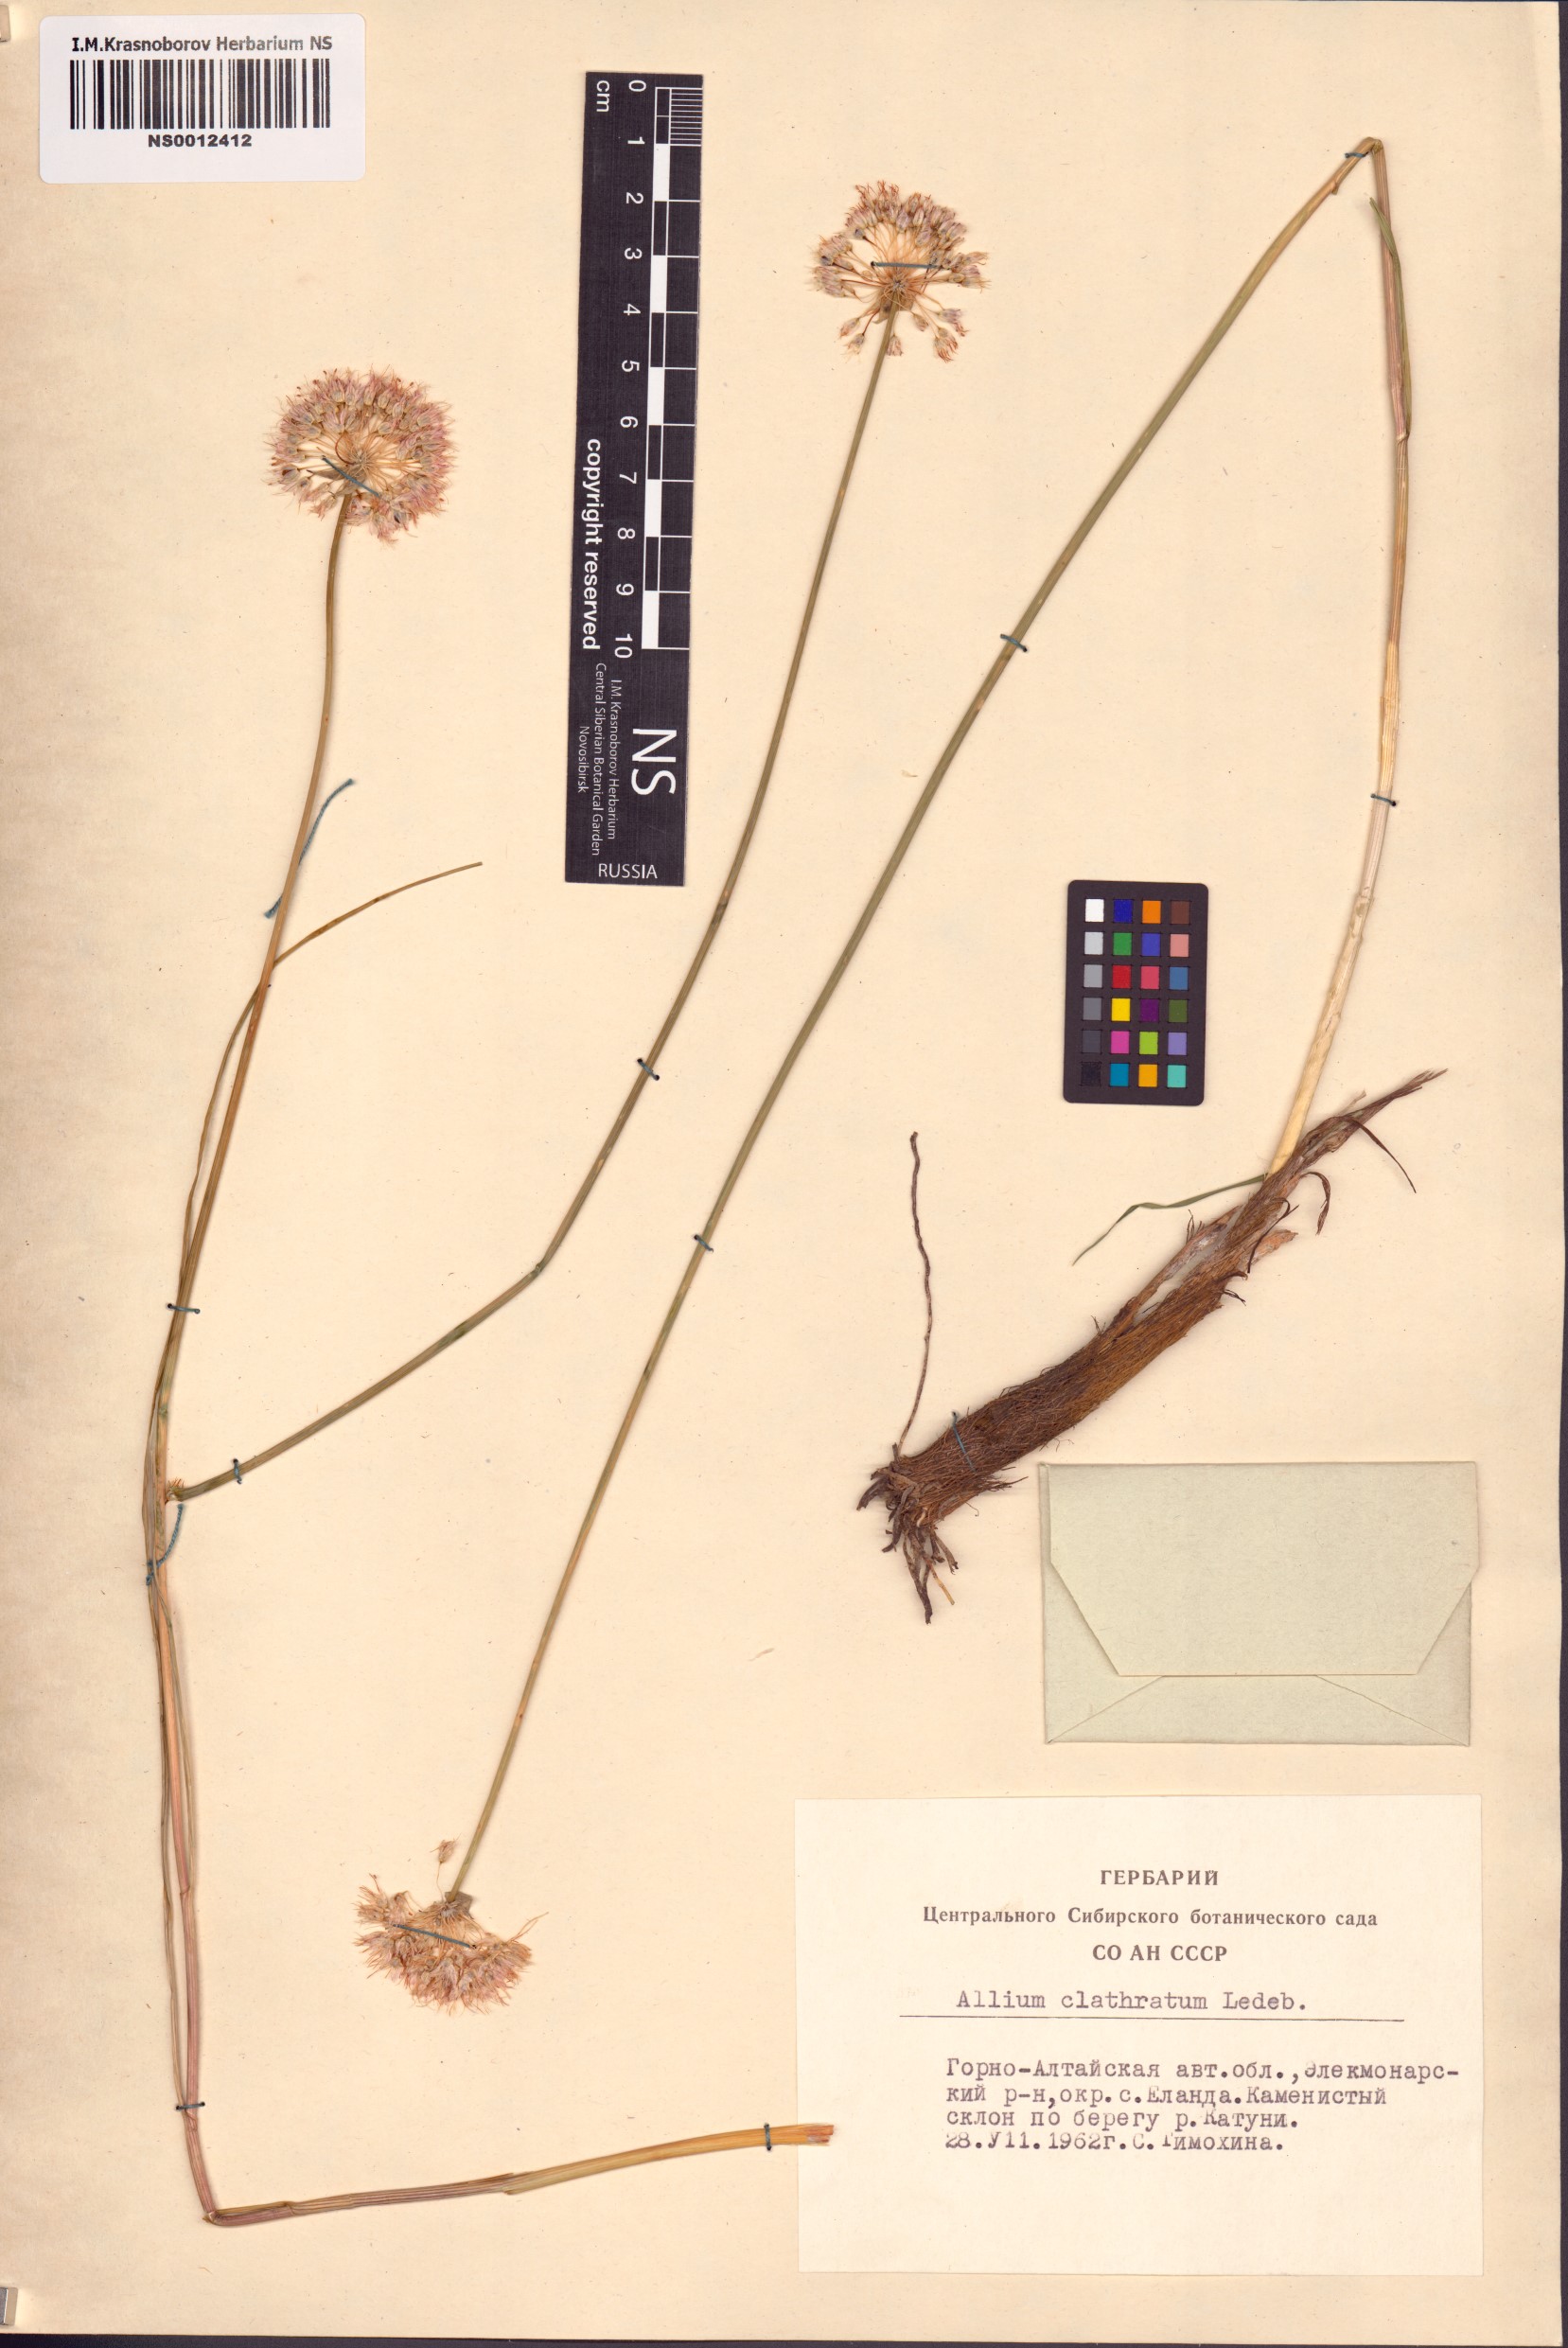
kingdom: Plantae
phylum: Tracheophyta
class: Liliopsida
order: Asparagales
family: Amaryllidaceae
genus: Allium
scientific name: Allium clathratum
